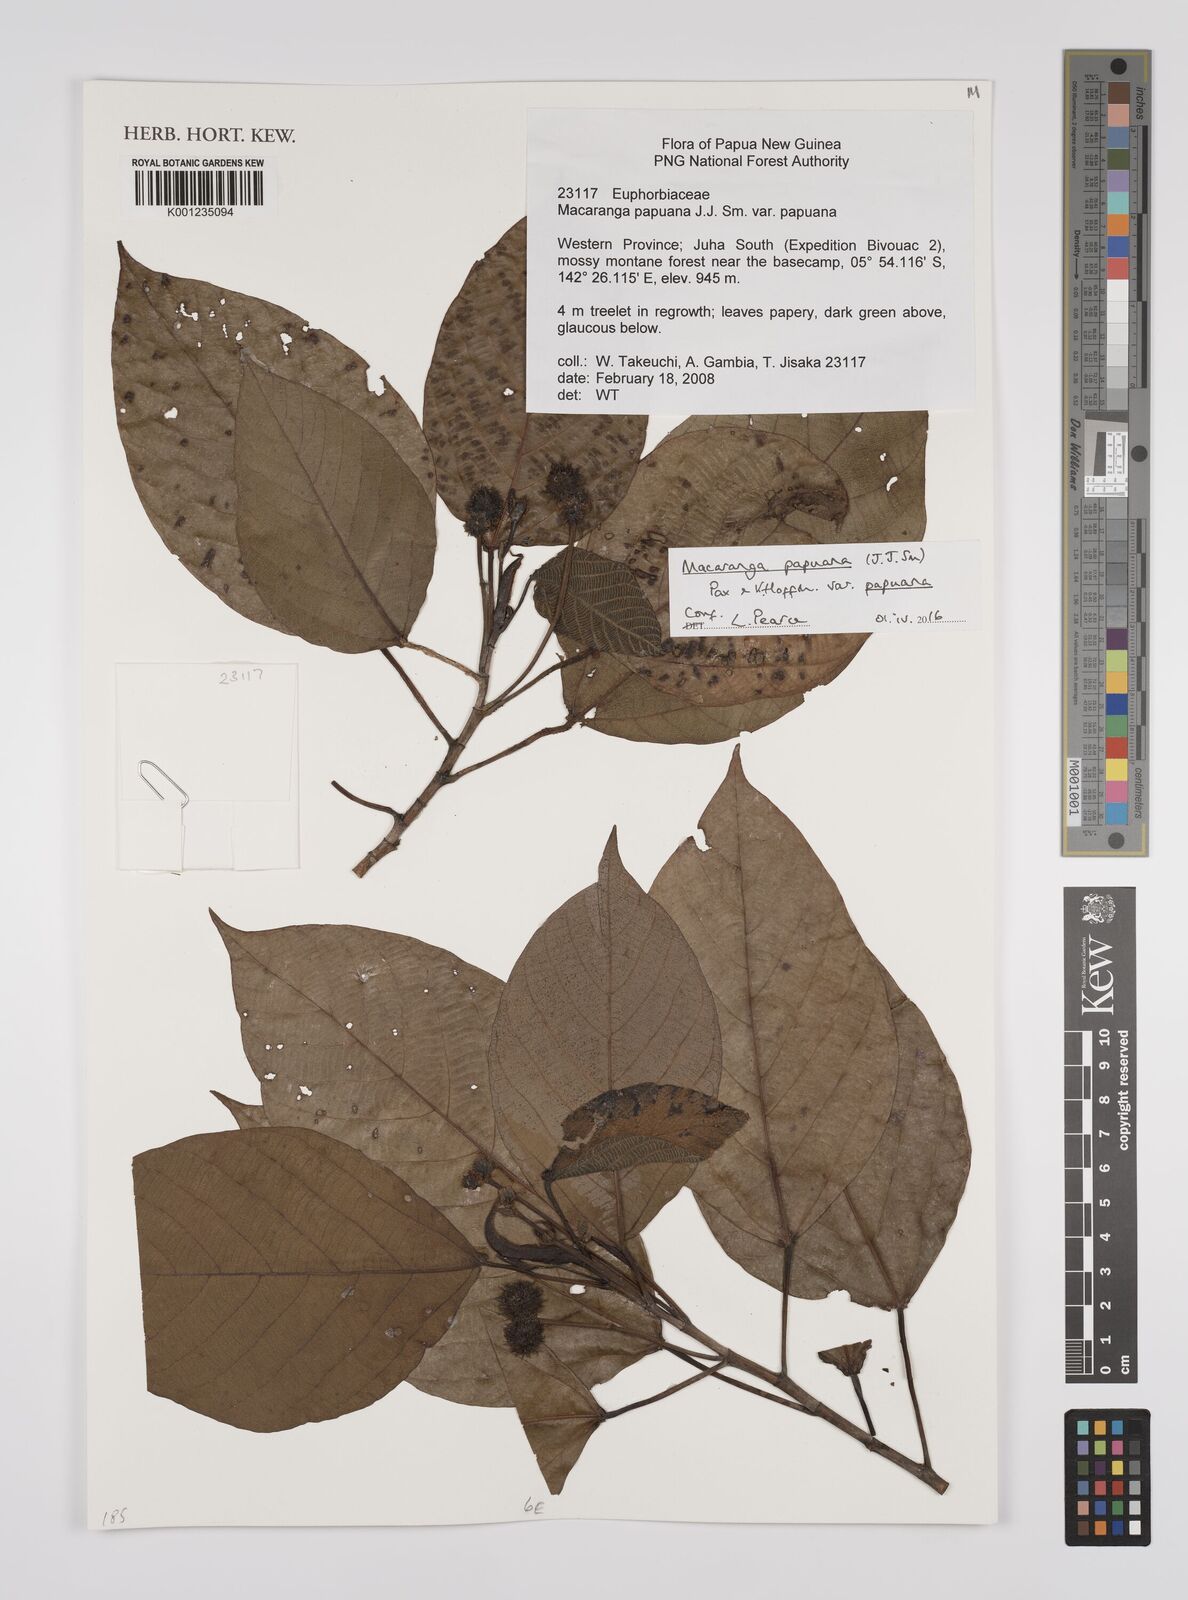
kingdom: Plantae
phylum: Tracheophyta
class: Magnoliopsida
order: Malpighiales
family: Euphorbiaceae
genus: Macaranga
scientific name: Macaranga papuana
